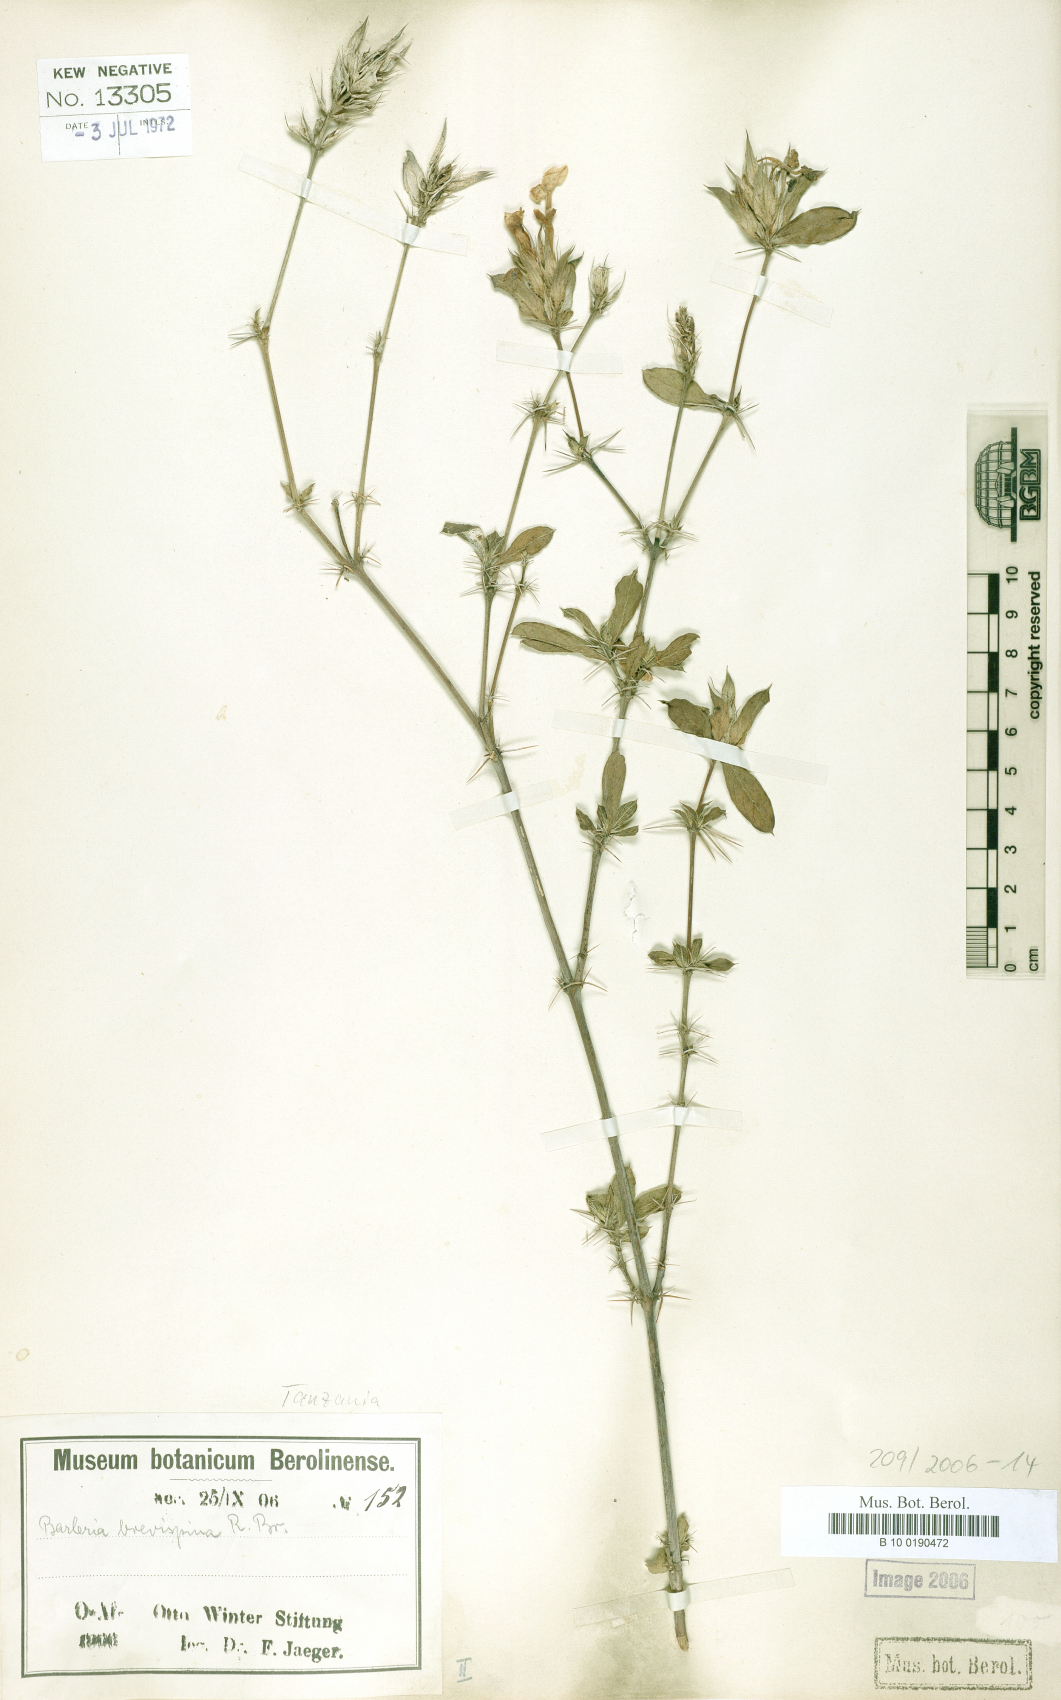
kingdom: Plantae
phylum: Tracheophyta
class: Magnoliopsida
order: Lamiales
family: Acanthaceae
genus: Barleria
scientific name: Barleria quadrispina
